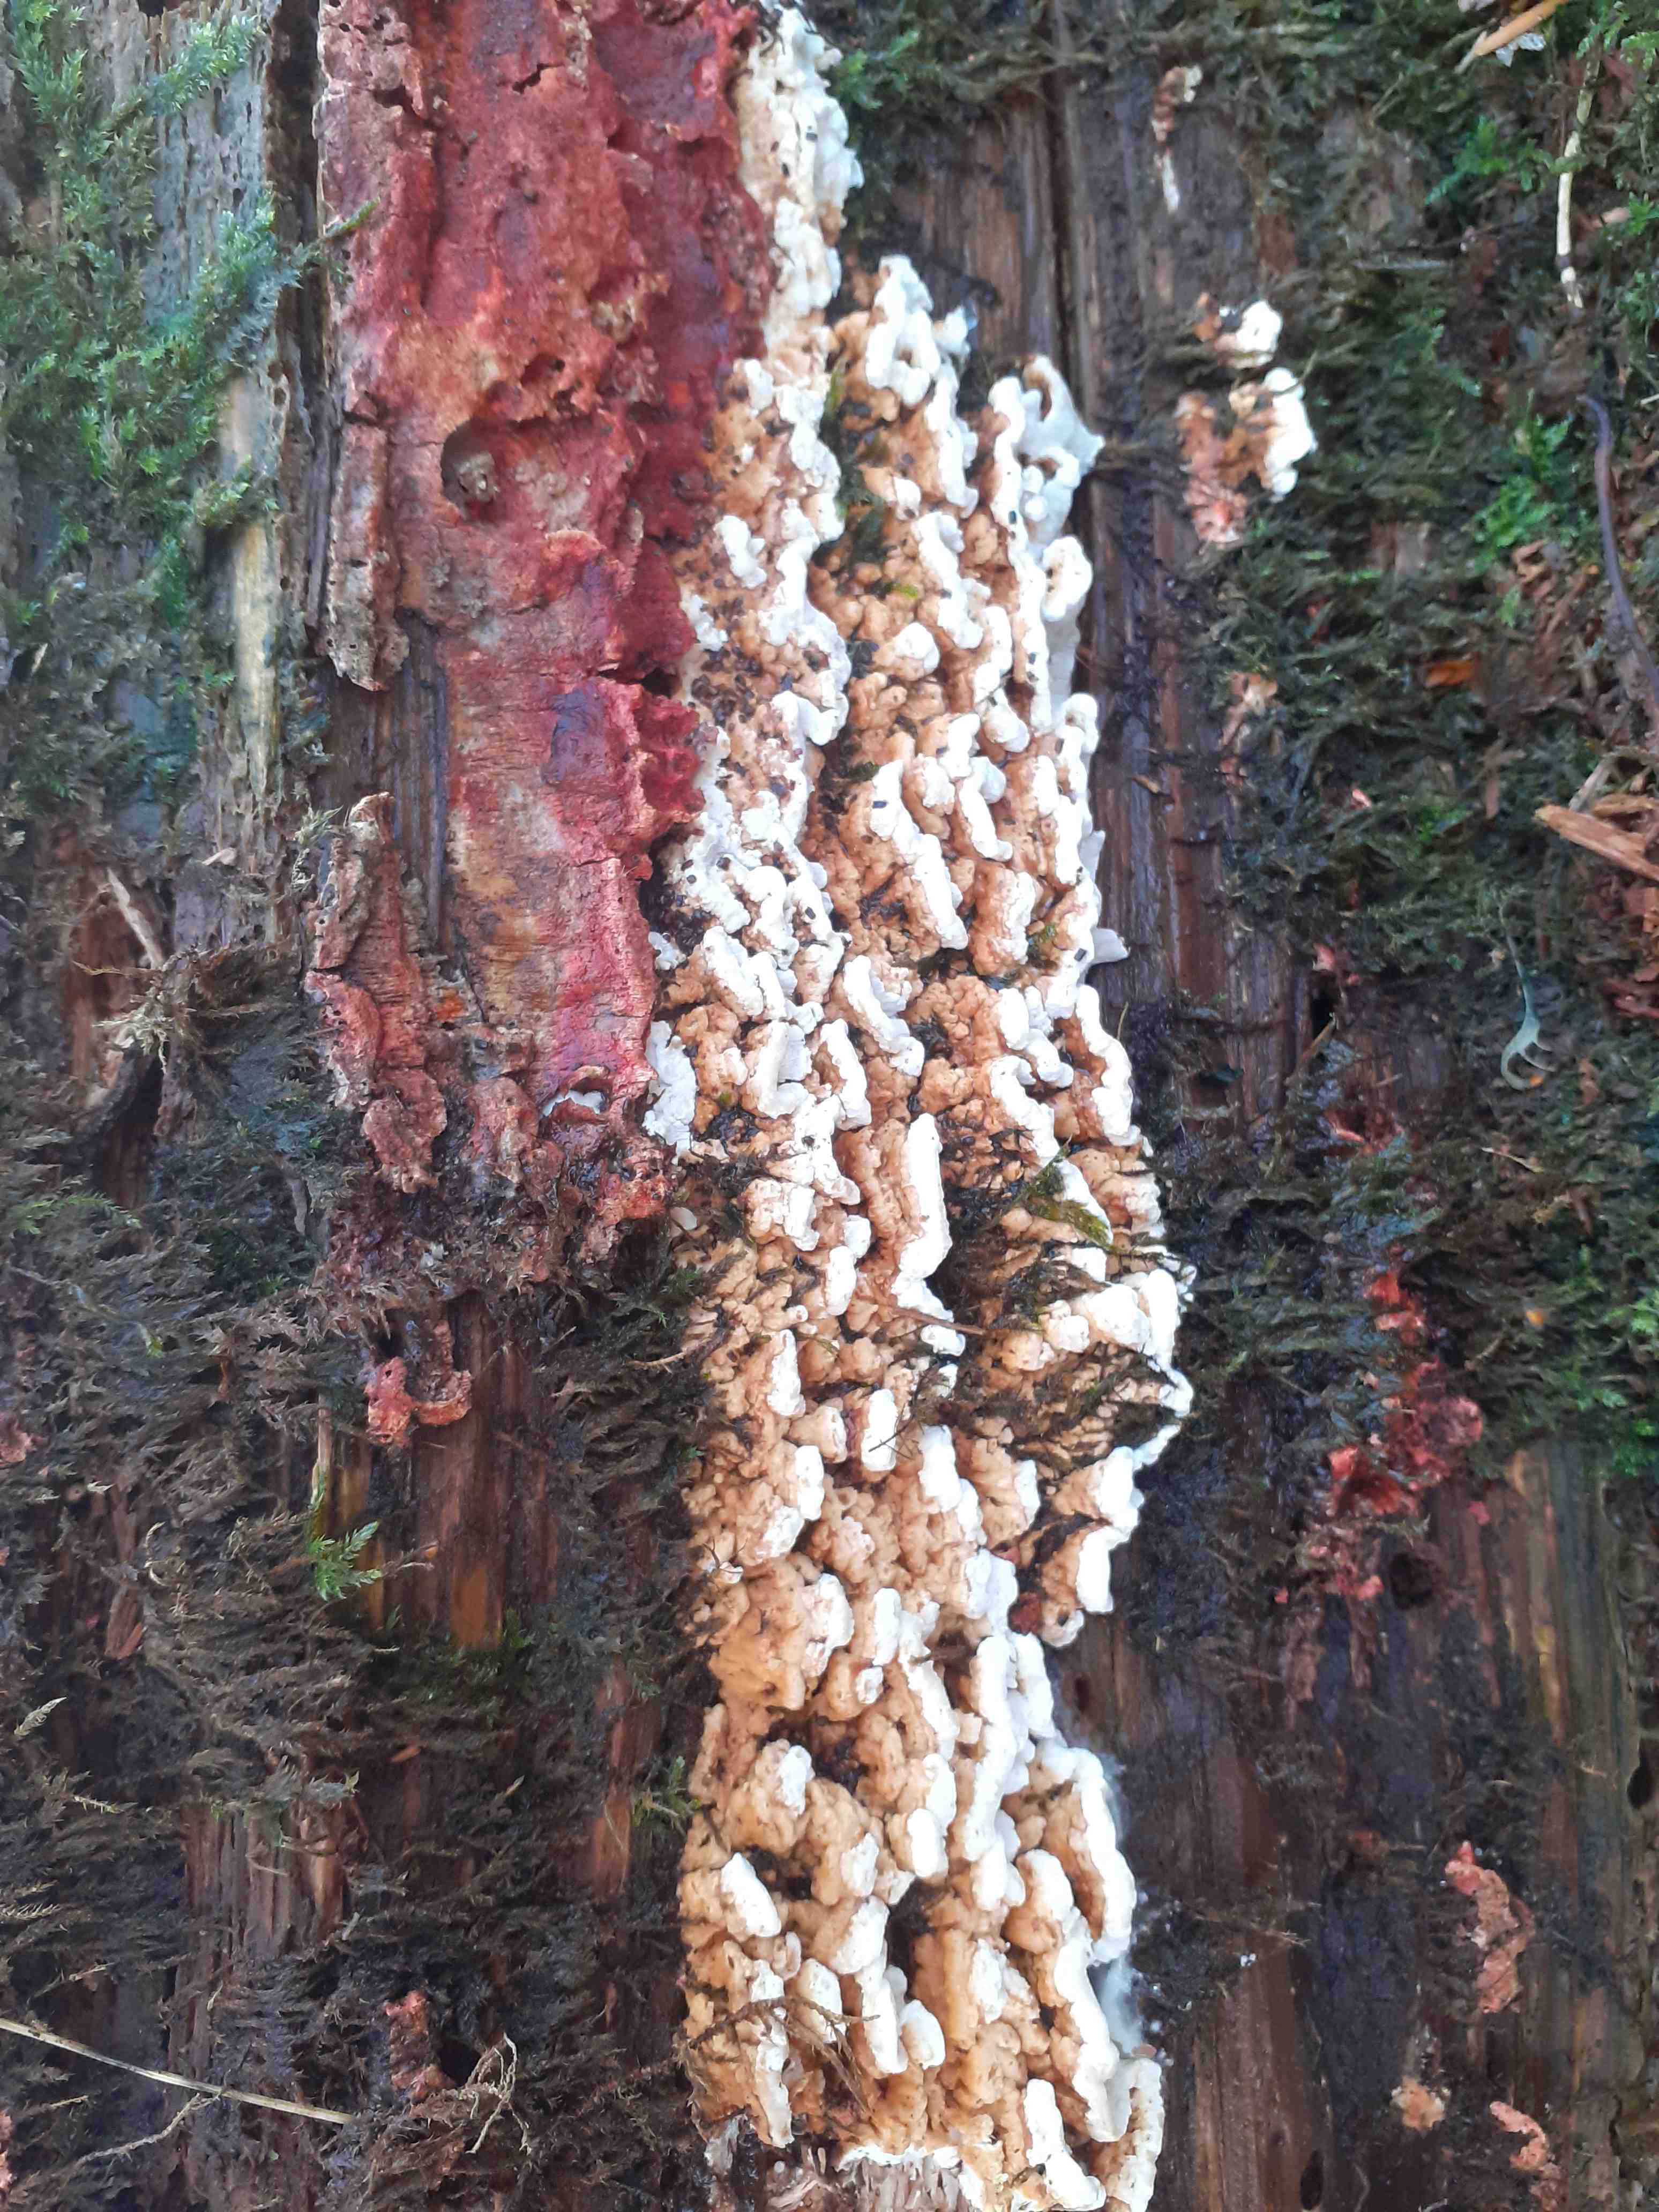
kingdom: Fungi
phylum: Basidiomycota
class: Agaricomycetes
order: Polyporales
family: Fomitopsidaceae
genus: Neoantrodia
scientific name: Neoantrodia serialis
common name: række-sejporesvamp
